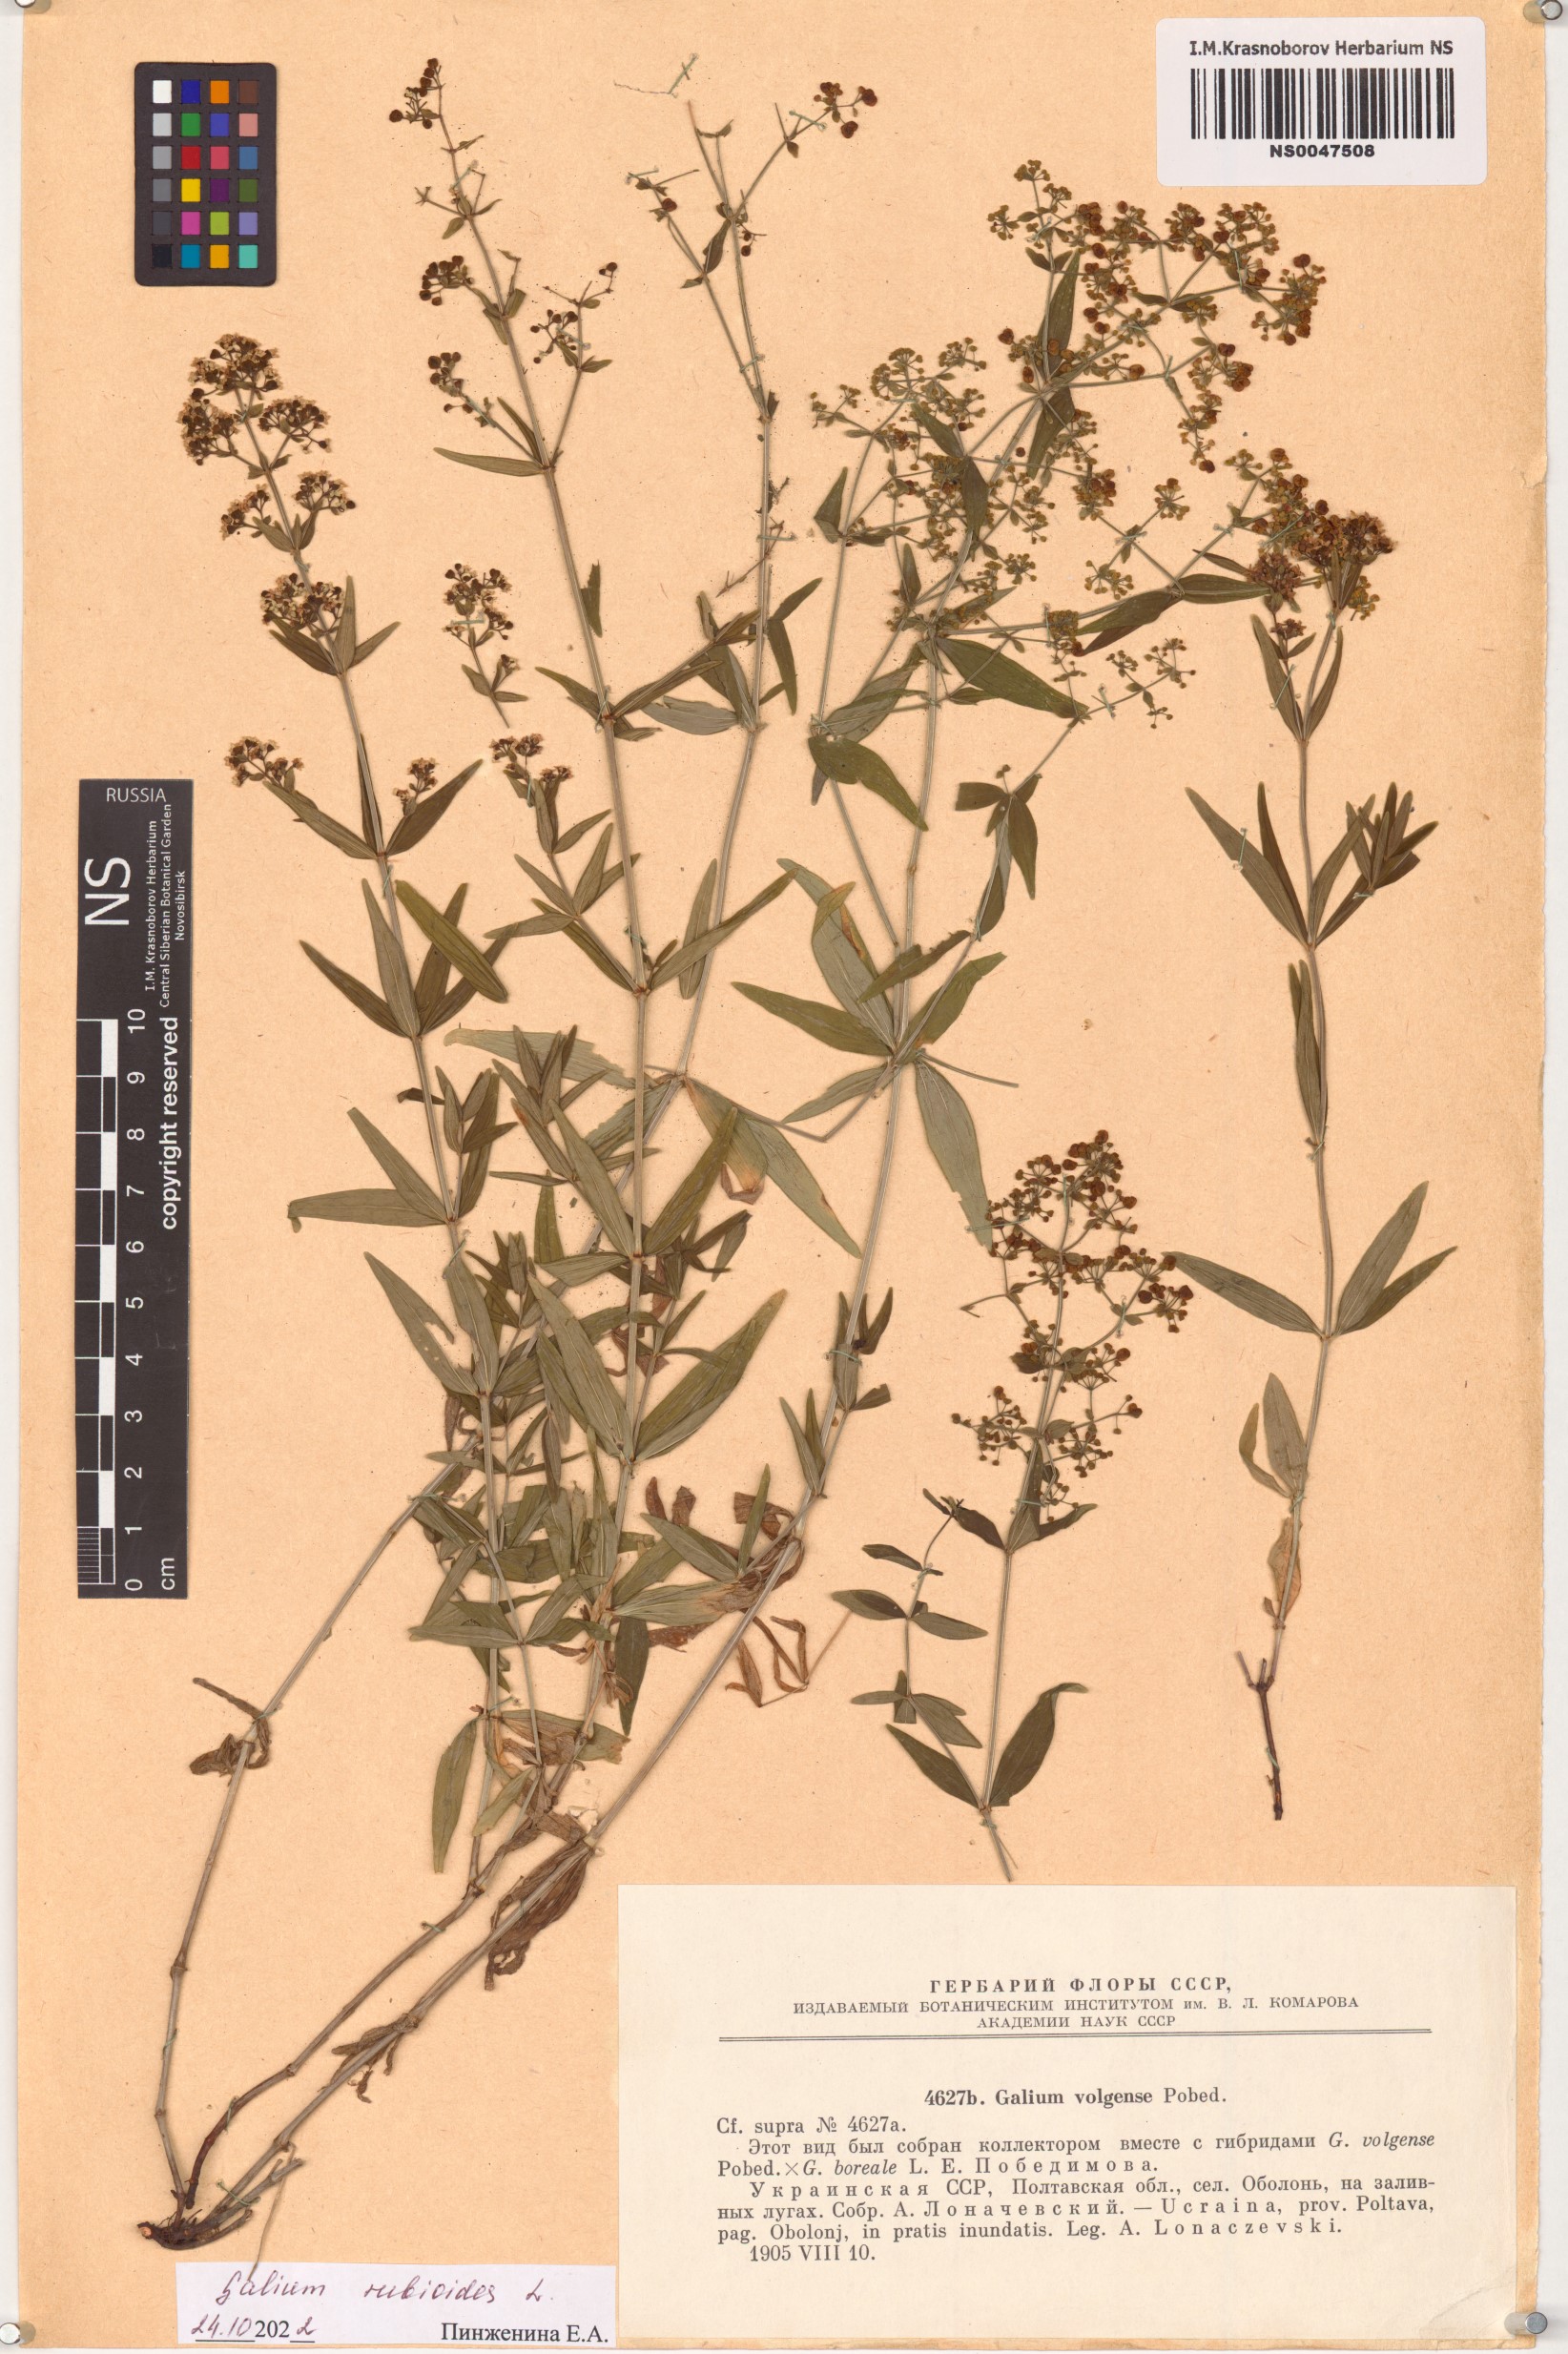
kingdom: Plantae
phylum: Tracheophyta
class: Magnoliopsida
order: Gentianales
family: Rubiaceae
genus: Galium
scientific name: Galium rubioides
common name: European bedstraw
